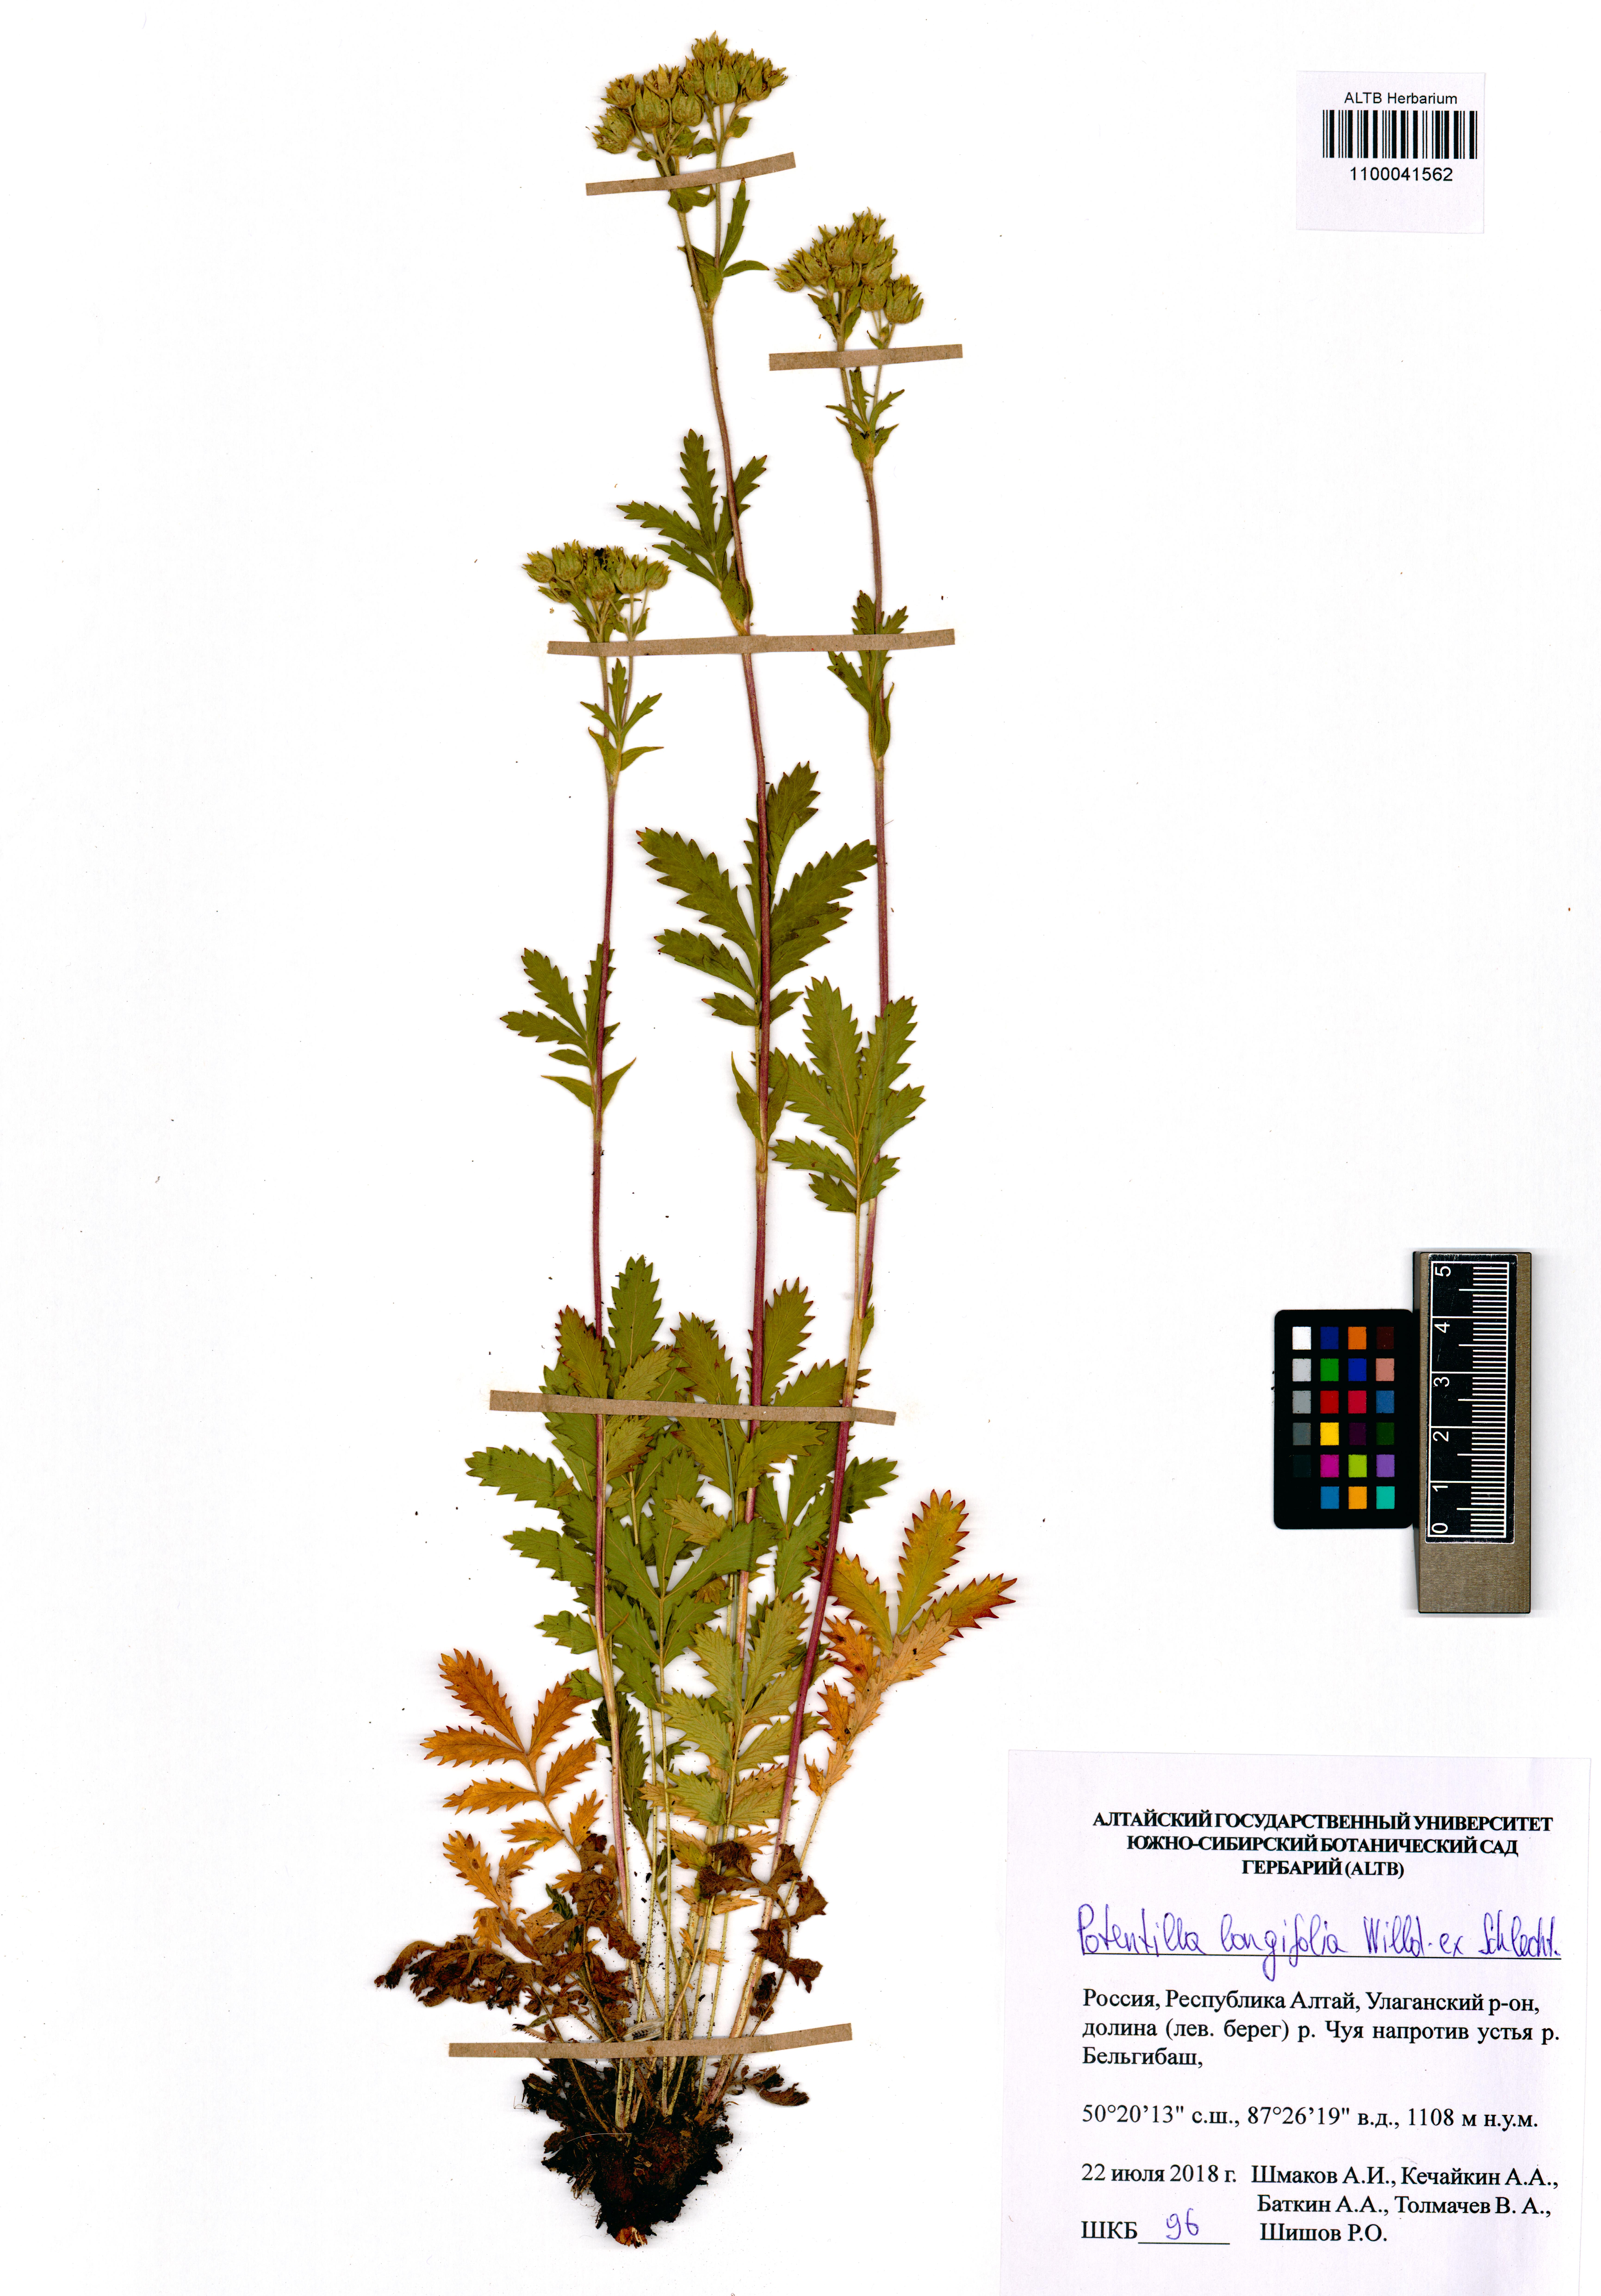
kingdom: Plantae
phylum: Tracheophyta
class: Magnoliopsida
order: Rosales
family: Rosaceae
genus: Potentilla
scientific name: Potentilla longifolia
